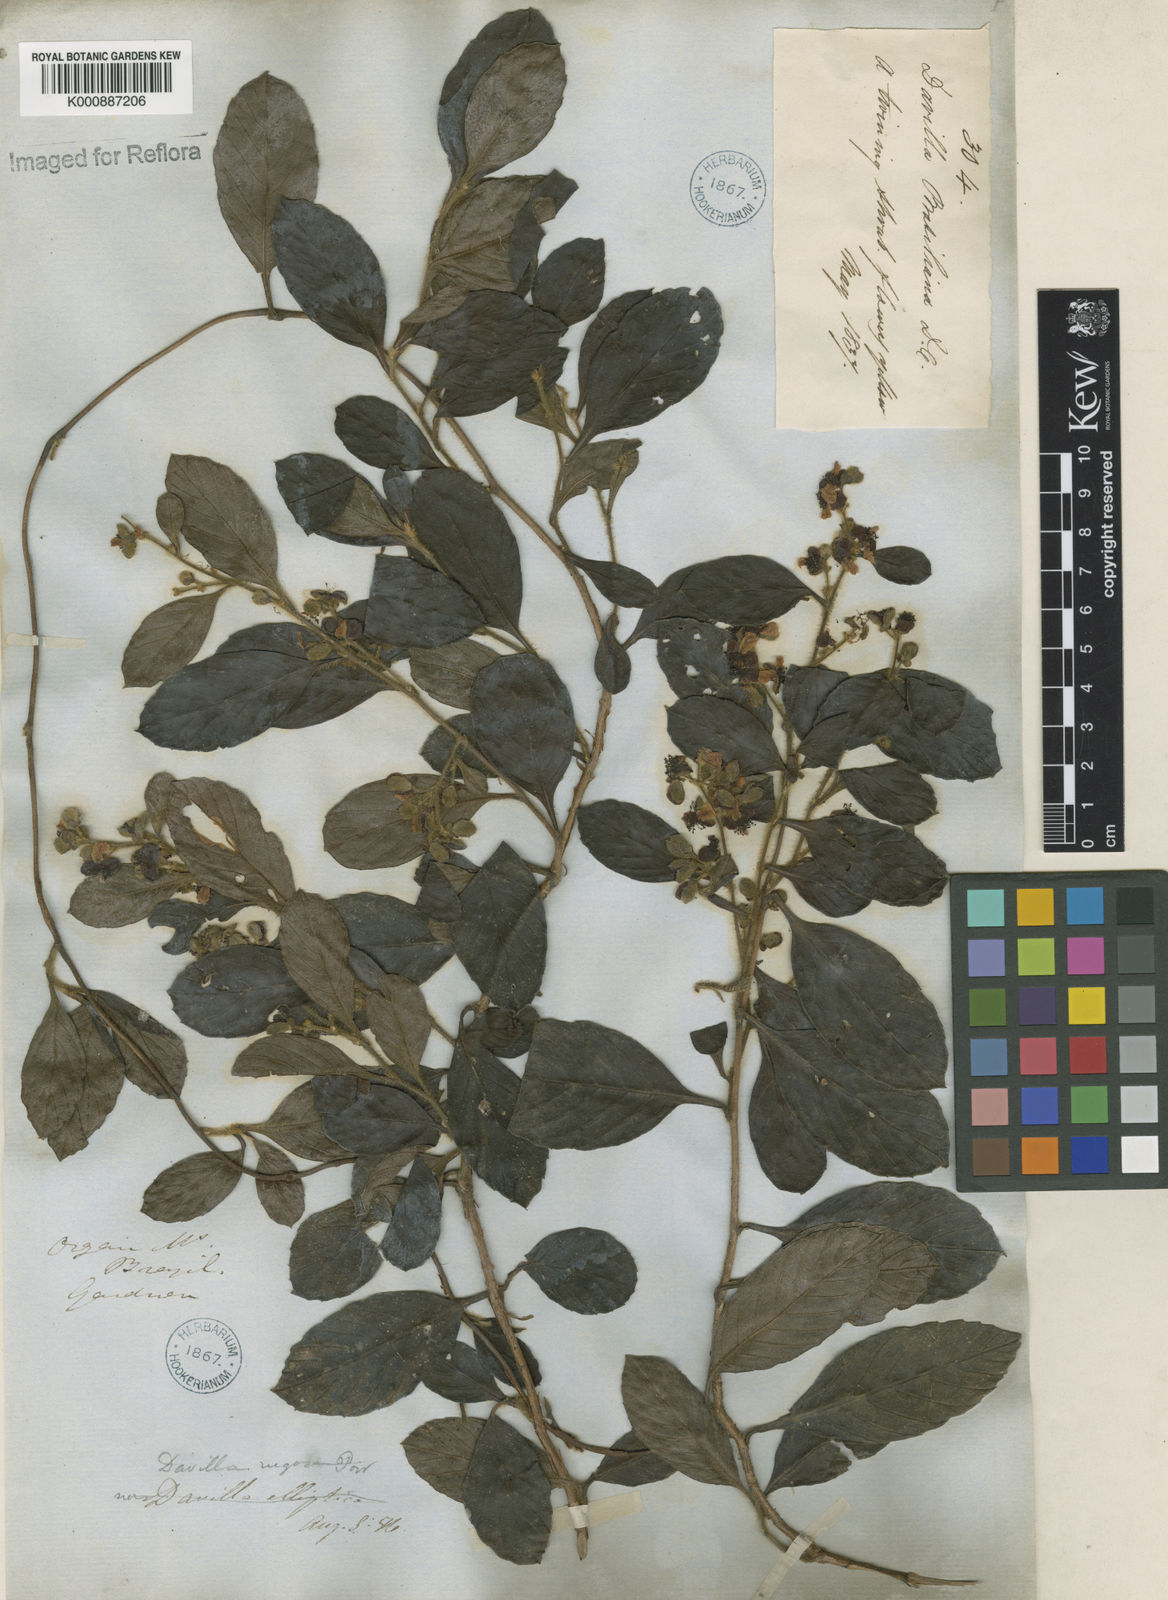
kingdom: Plantae
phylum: Tracheophyta
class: Magnoliopsida
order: Dilleniales
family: Dilleniaceae
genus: Davilla
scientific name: Davilla rugosa
